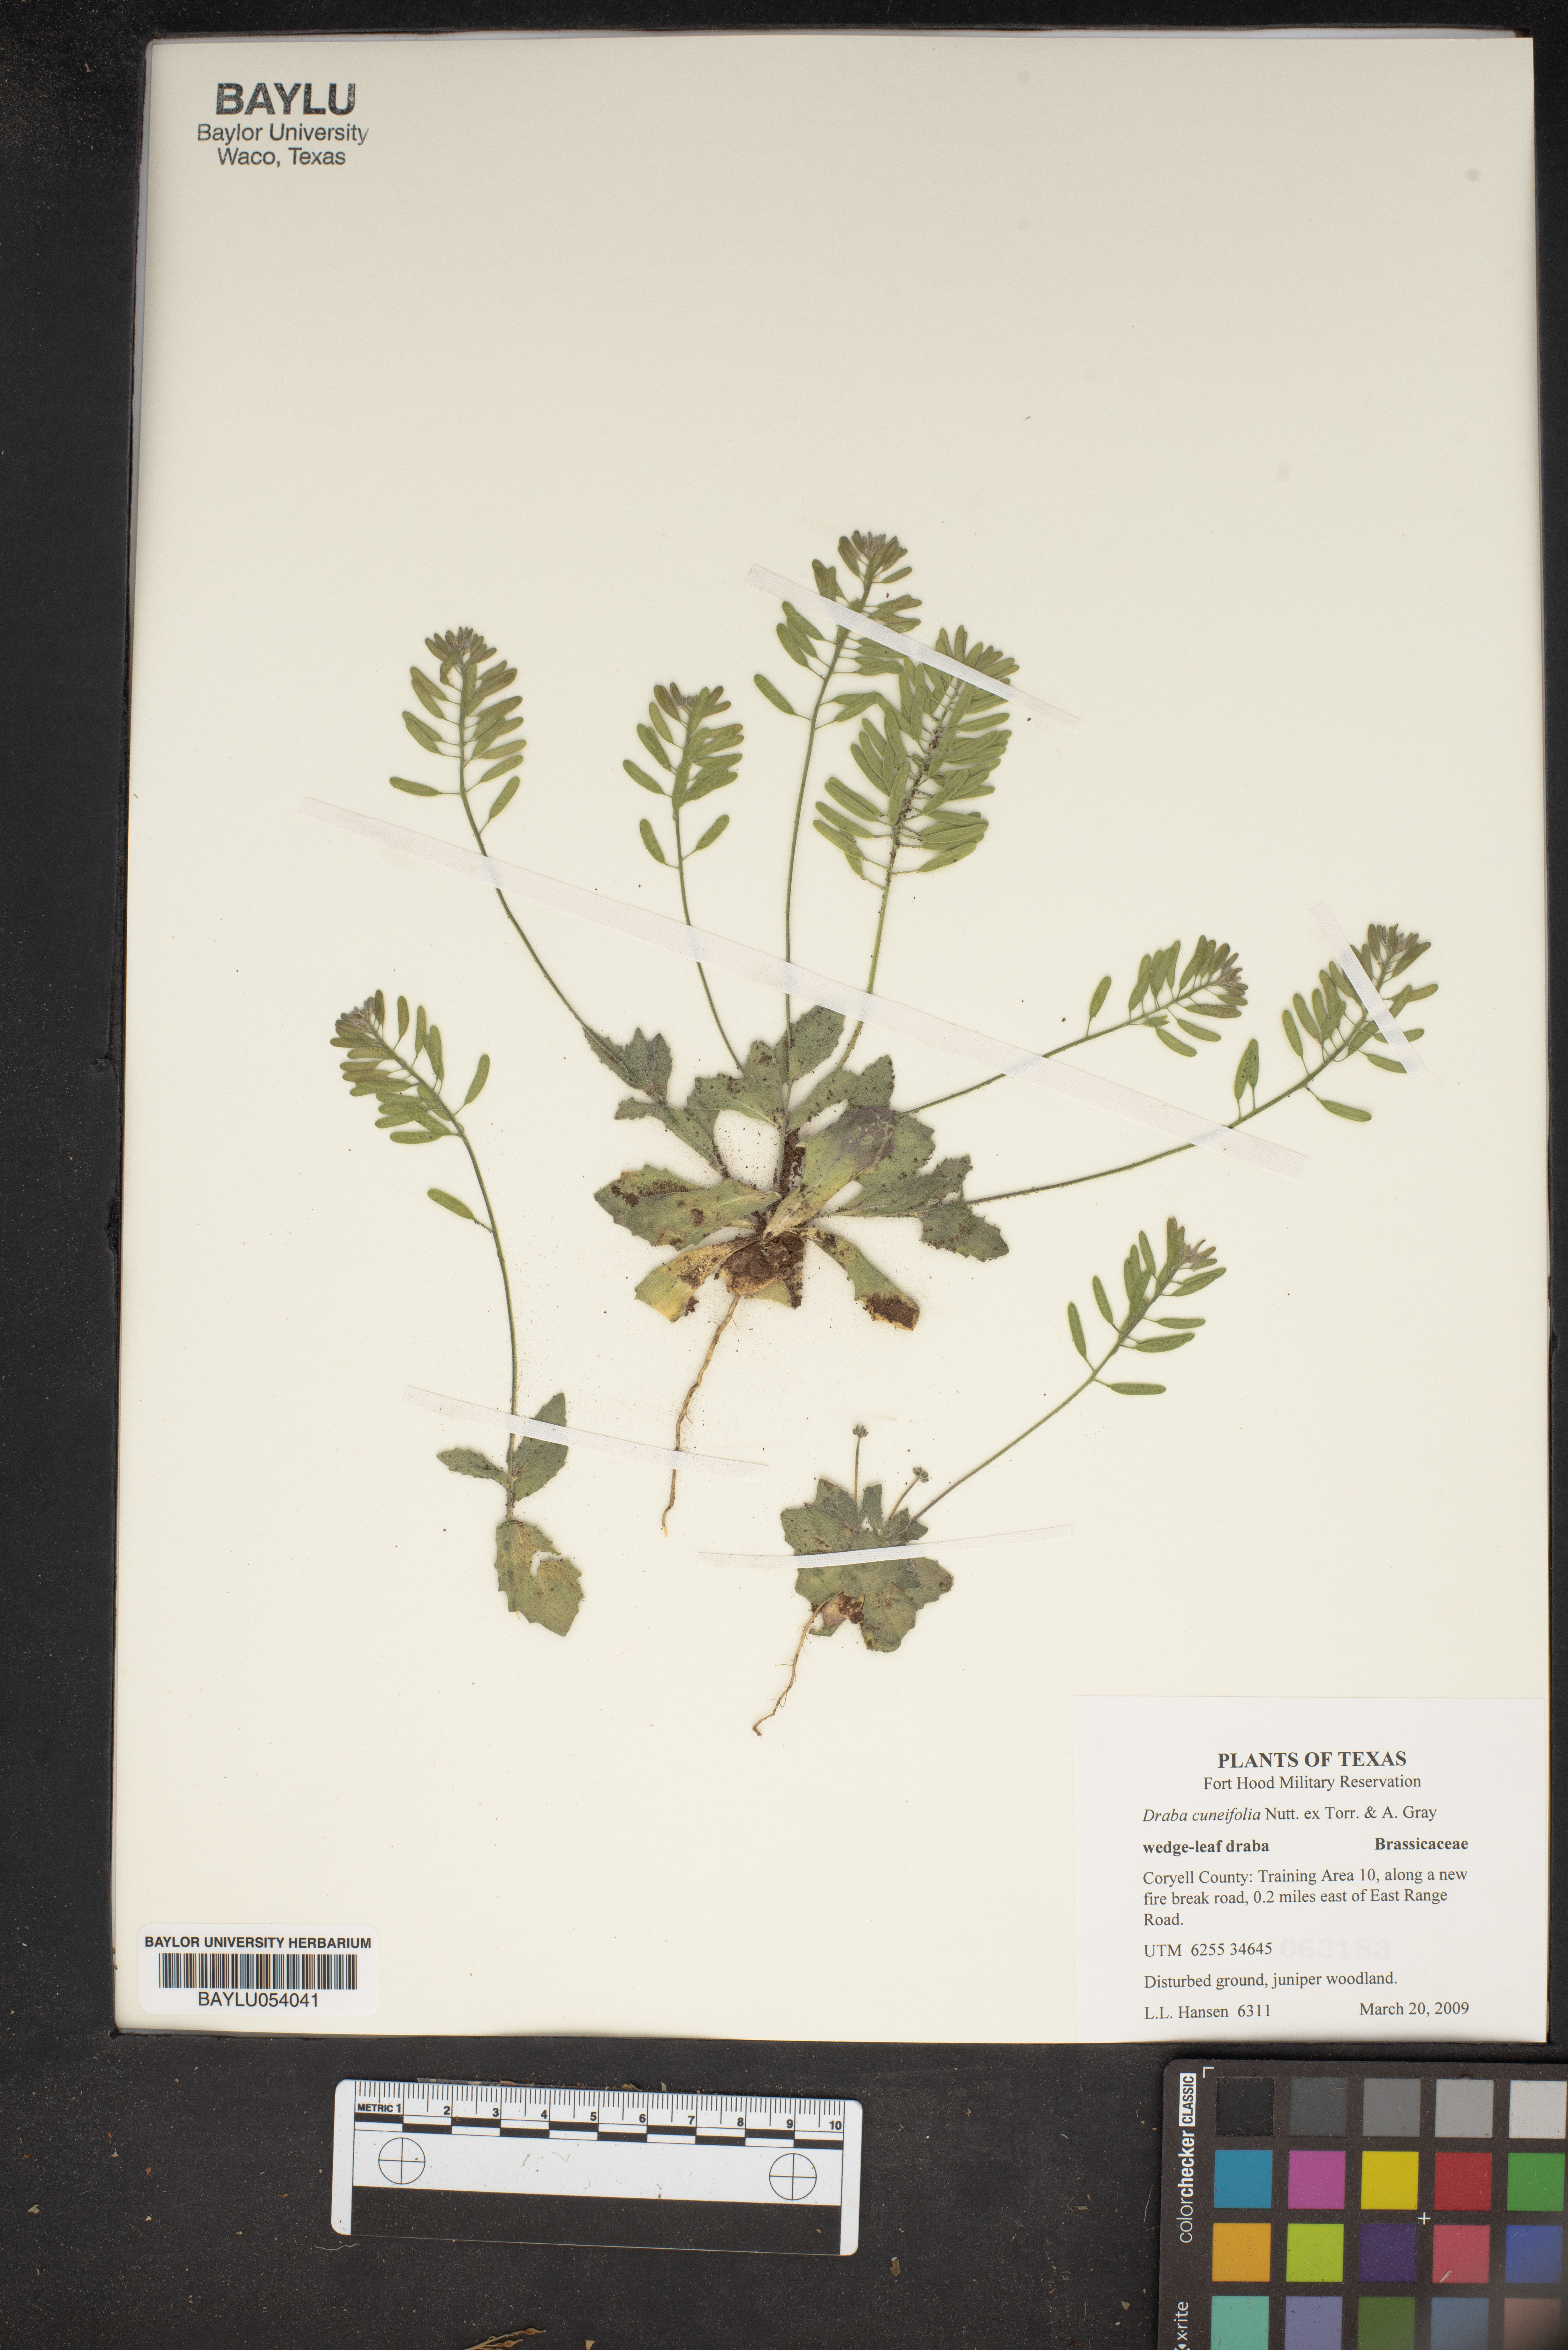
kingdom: Plantae
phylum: Tracheophyta
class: Magnoliopsida
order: Brassicales
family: Brassicaceae
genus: Tomostima
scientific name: Tomostima cuneifolia
